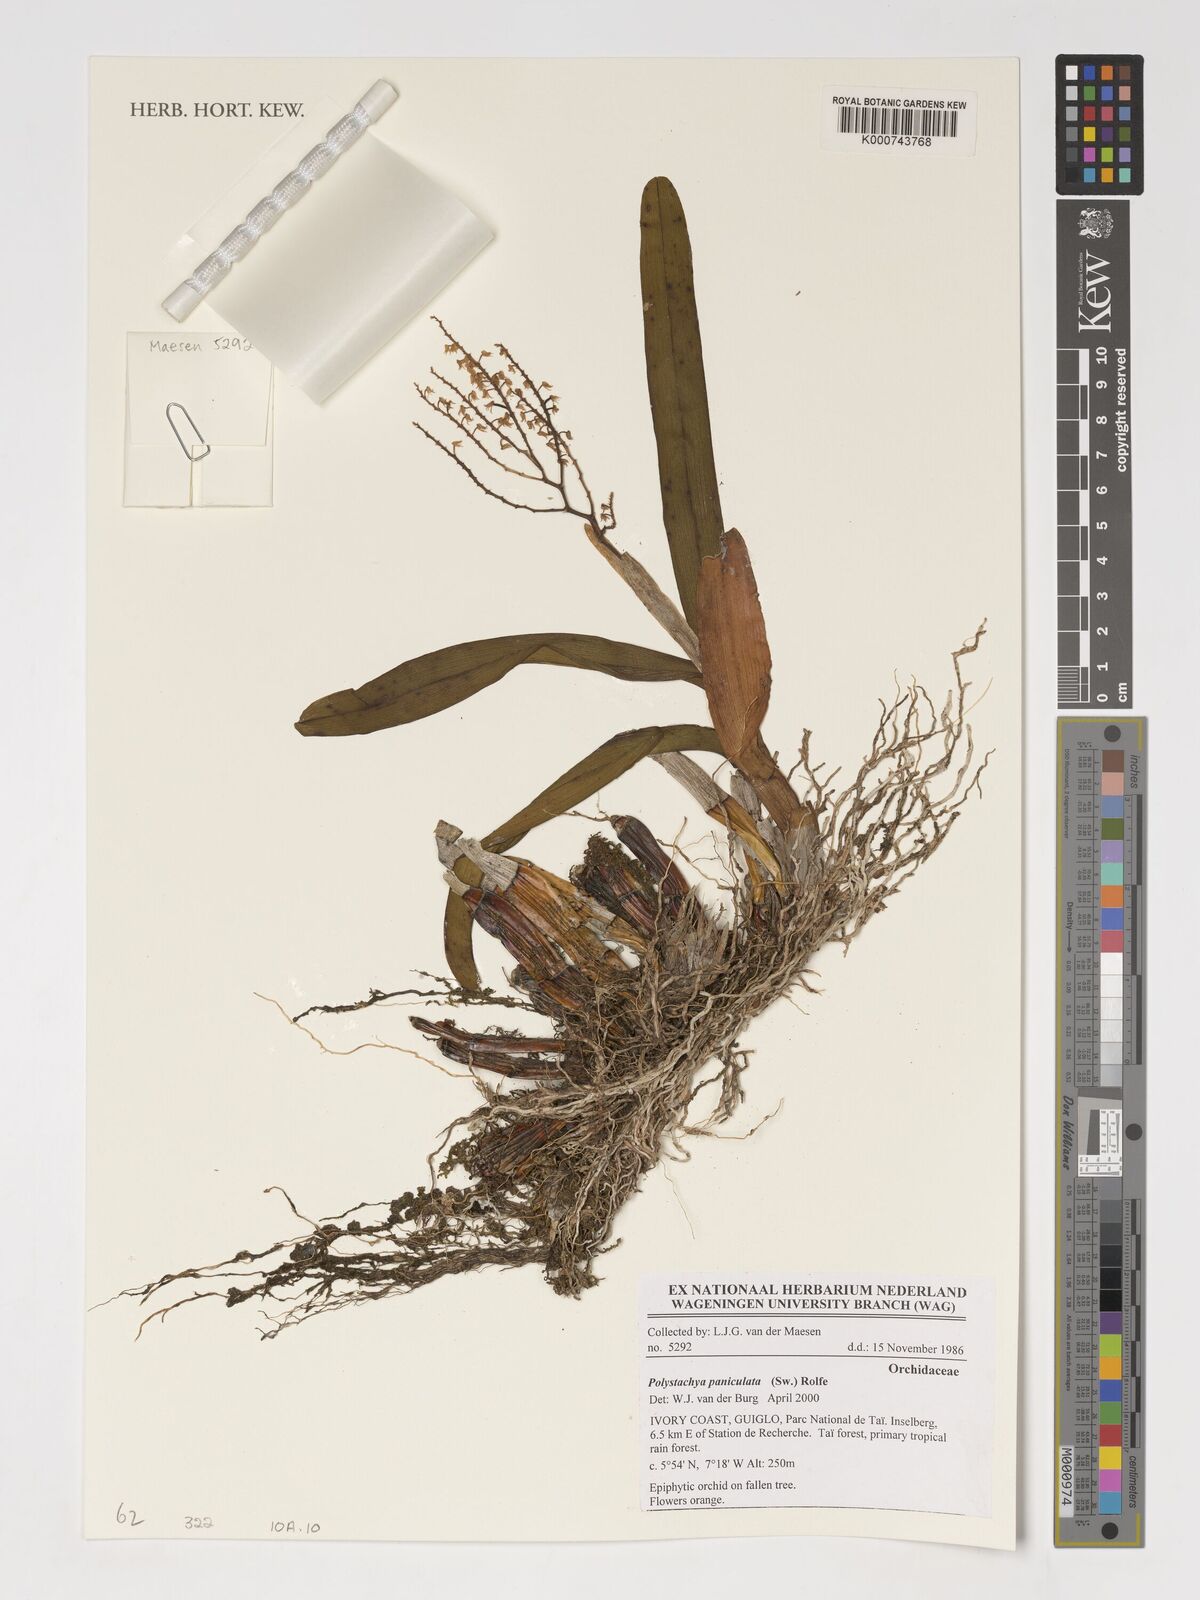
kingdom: Plantae
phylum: Tracheophyta
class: Liliopsida
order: Asparagales
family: Orchidaceae
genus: Polystachya
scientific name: Polystachya paniculata
